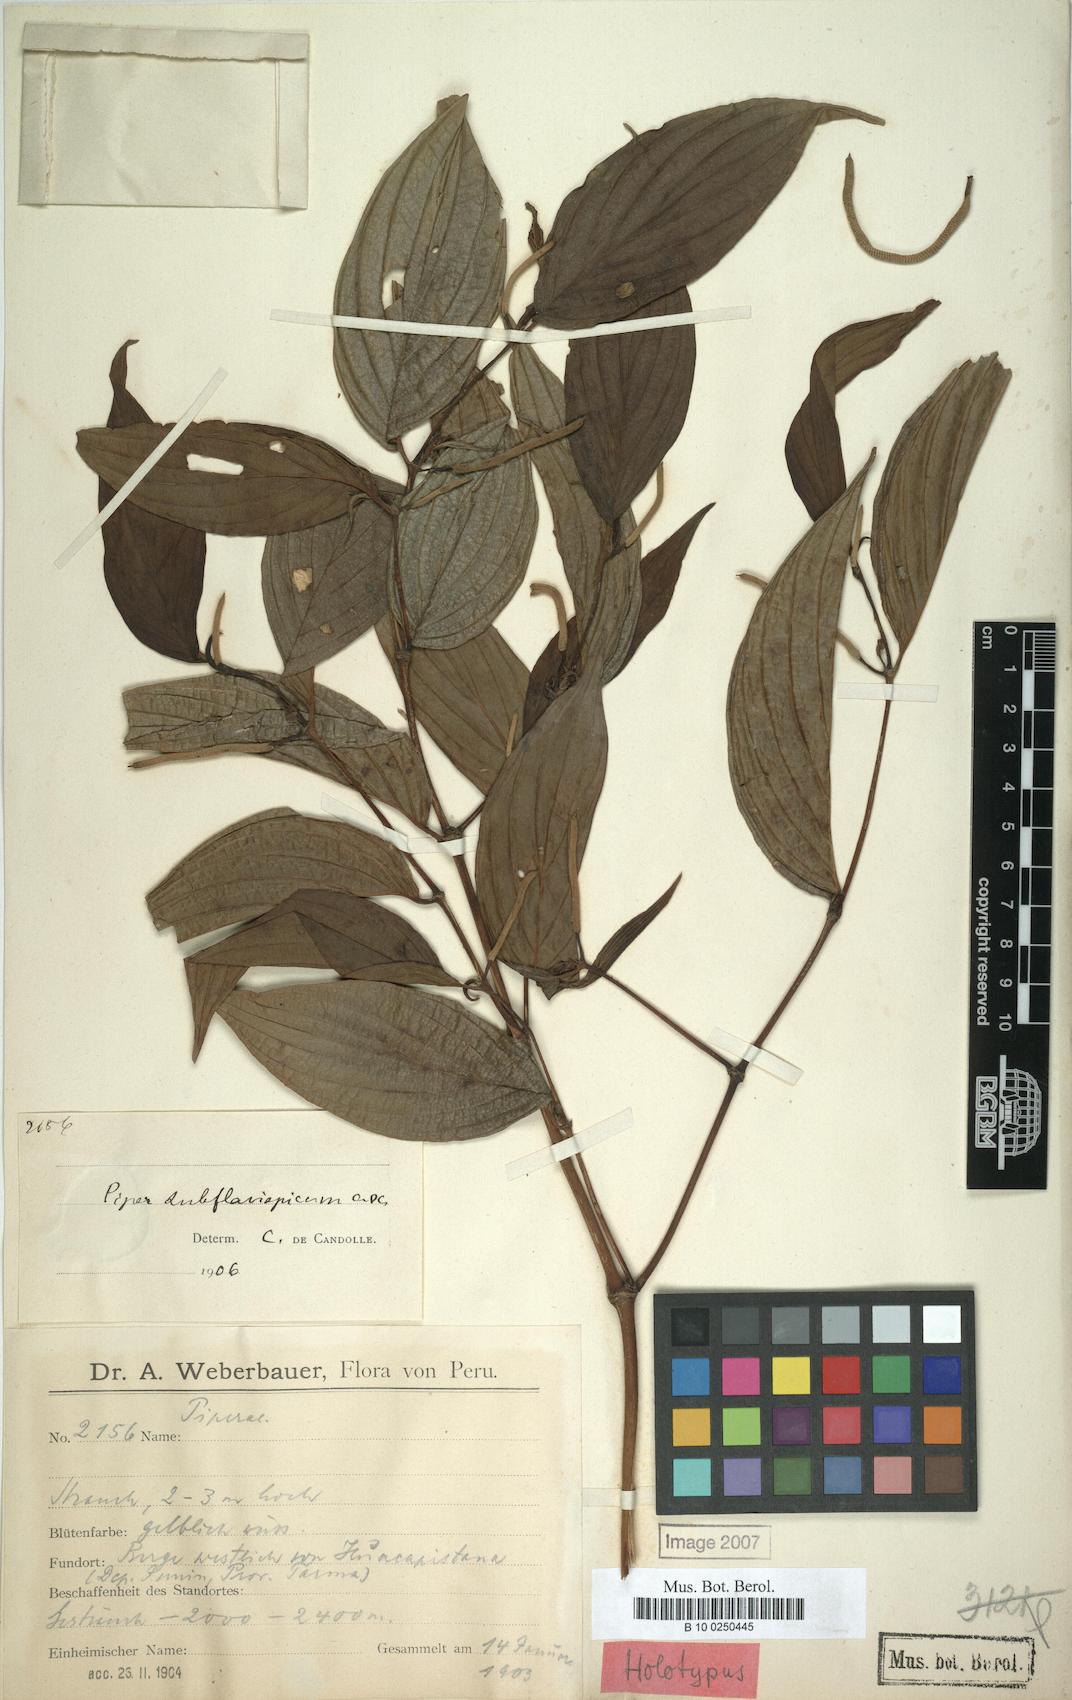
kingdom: Plantae
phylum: Tracheophyta
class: Magnoliopsida
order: Piperales
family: Piperaceae
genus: Piper
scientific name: Piper subflavispicum
